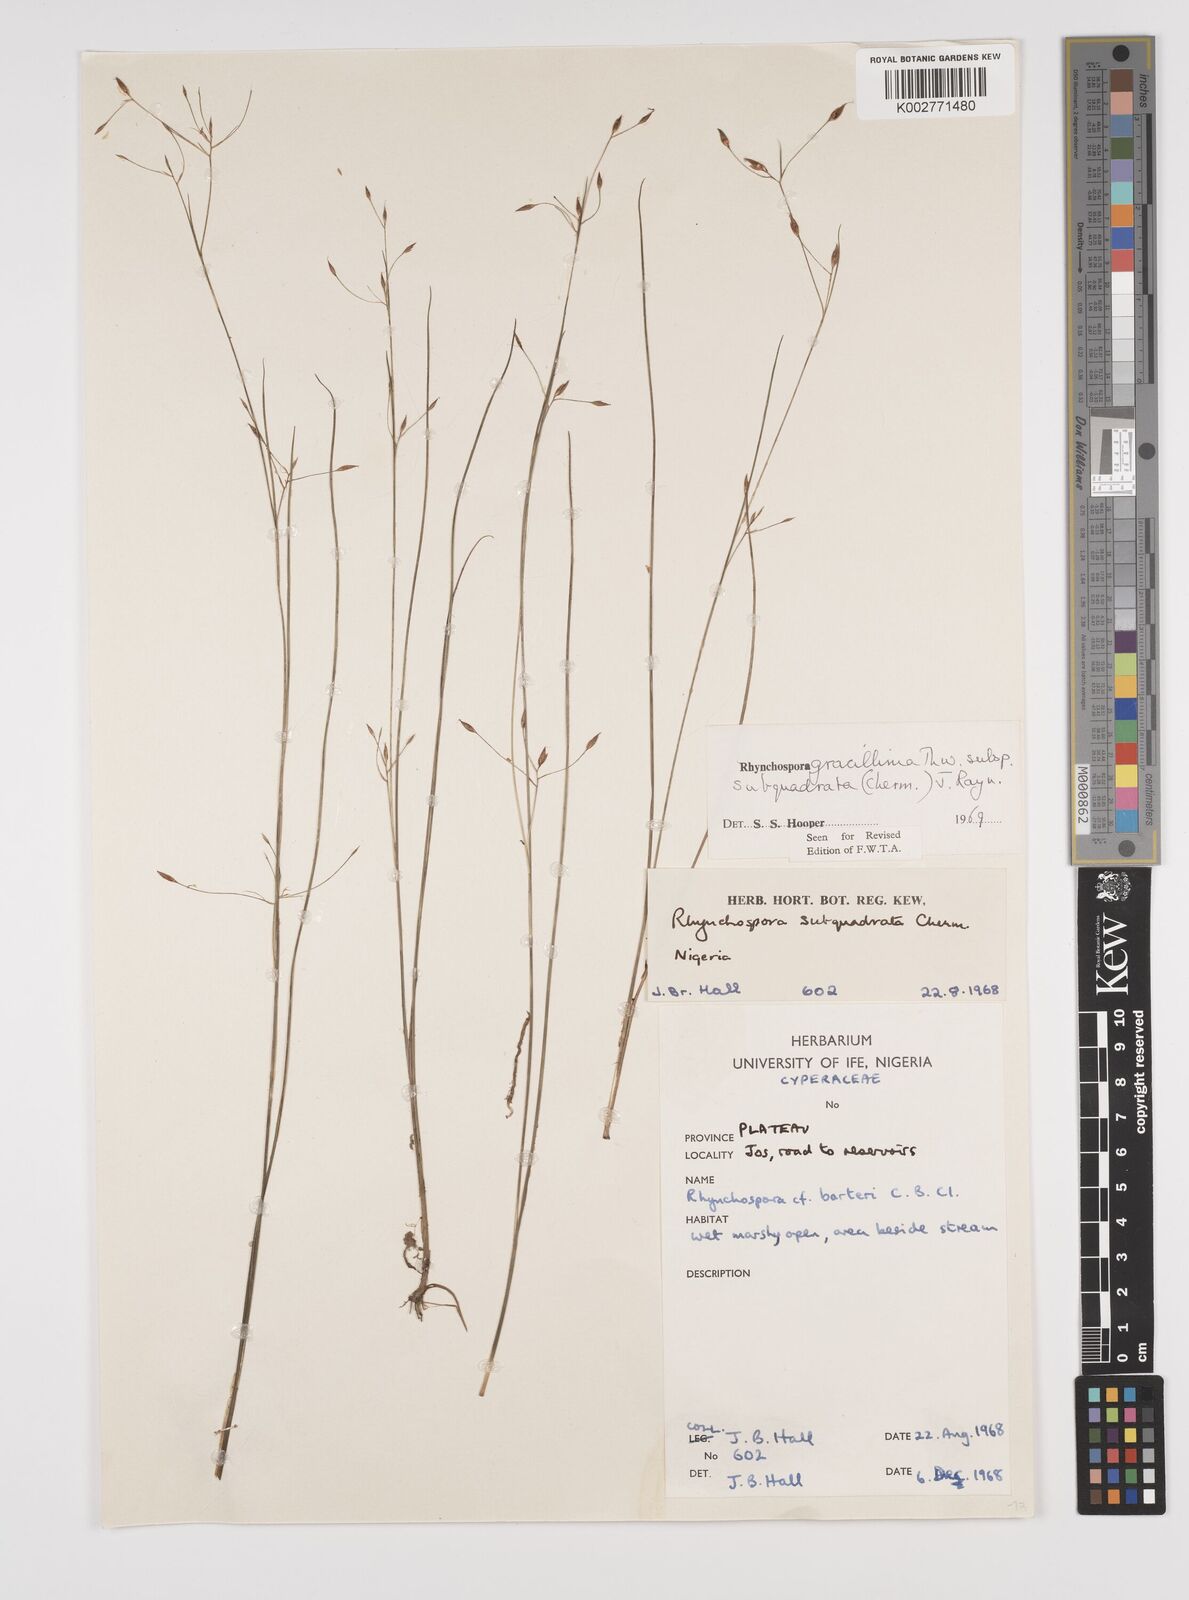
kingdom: Plantae
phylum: Tracheophyta
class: Liliopsida
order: Poales
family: Cyperaceae
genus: Rhynchospora
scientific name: Rhynchospora gracillima
